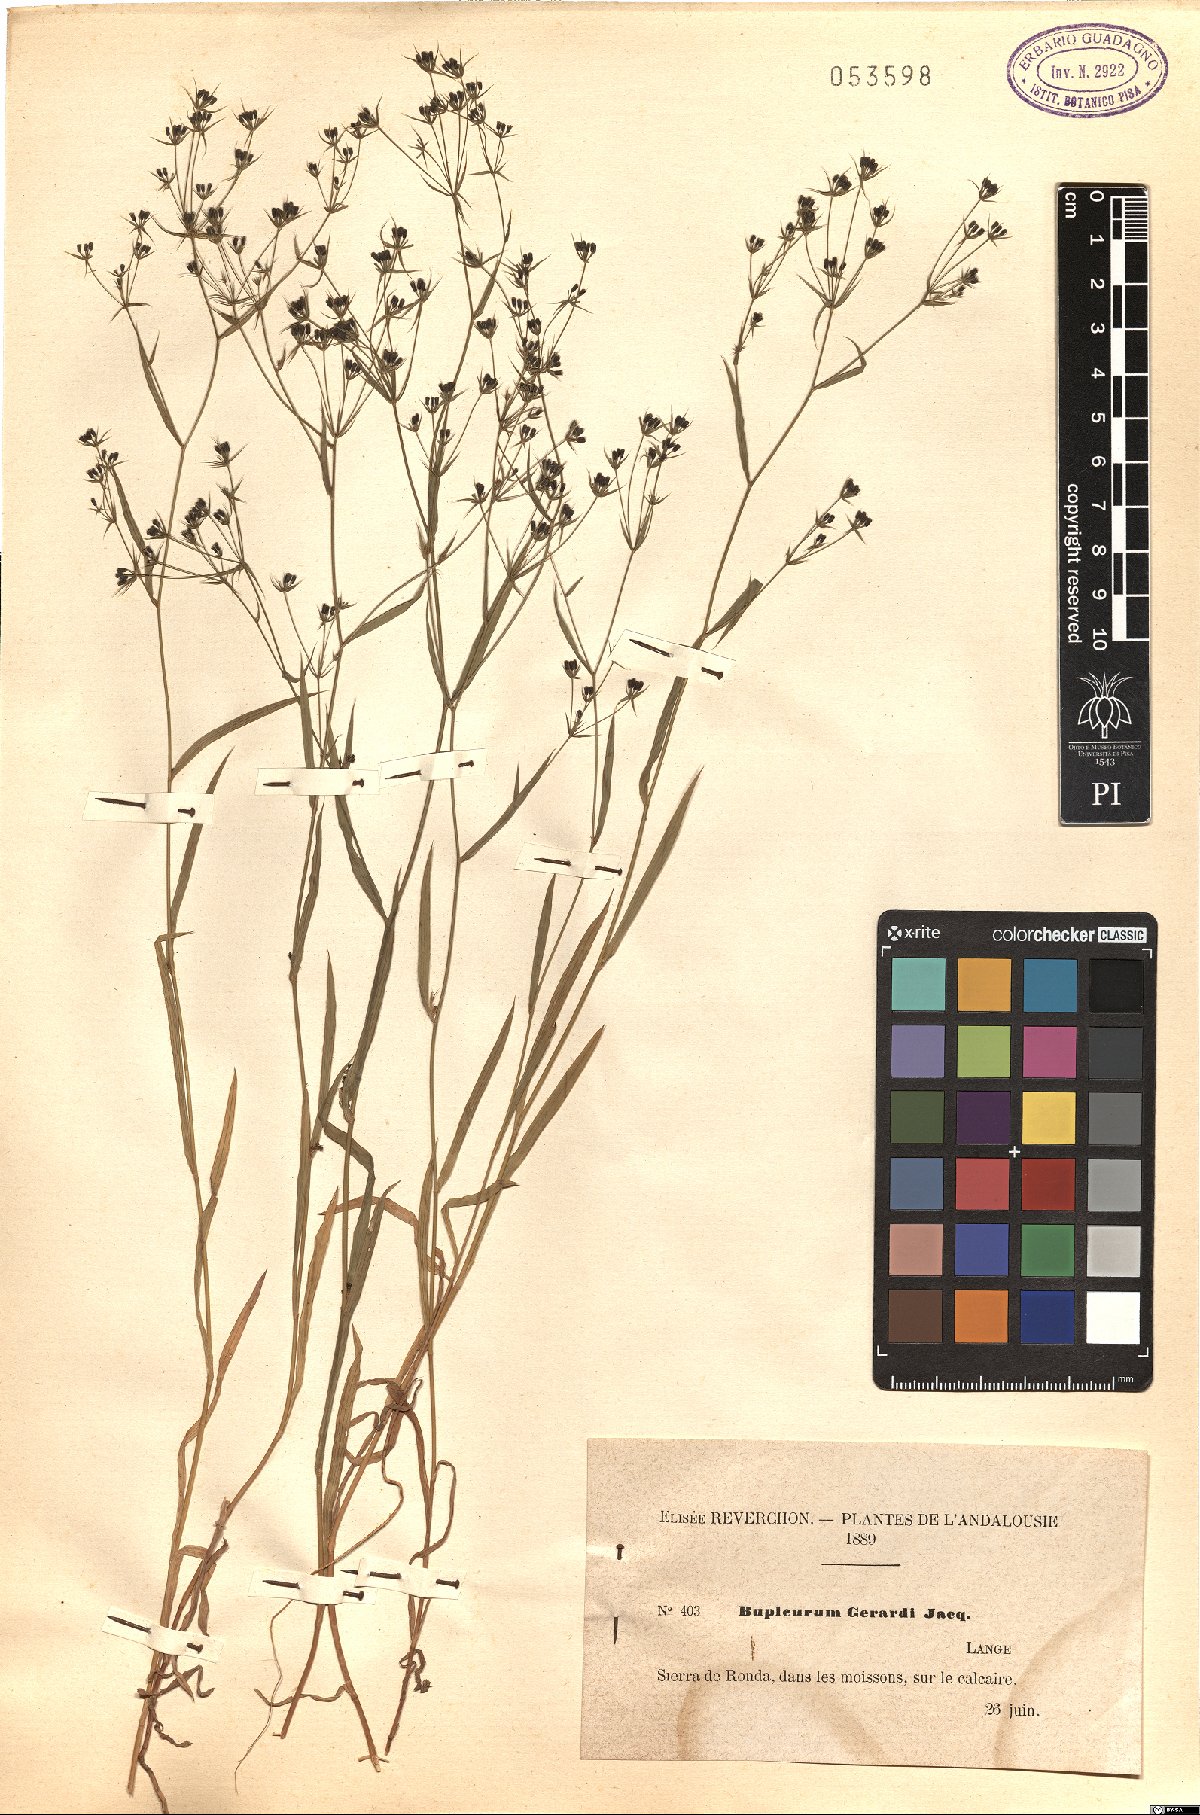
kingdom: Plantae
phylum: Tracheophyta
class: Magnoliopsida
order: Apiales
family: Apiaceae
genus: Bupleurum
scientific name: Bupleurum gerardi
